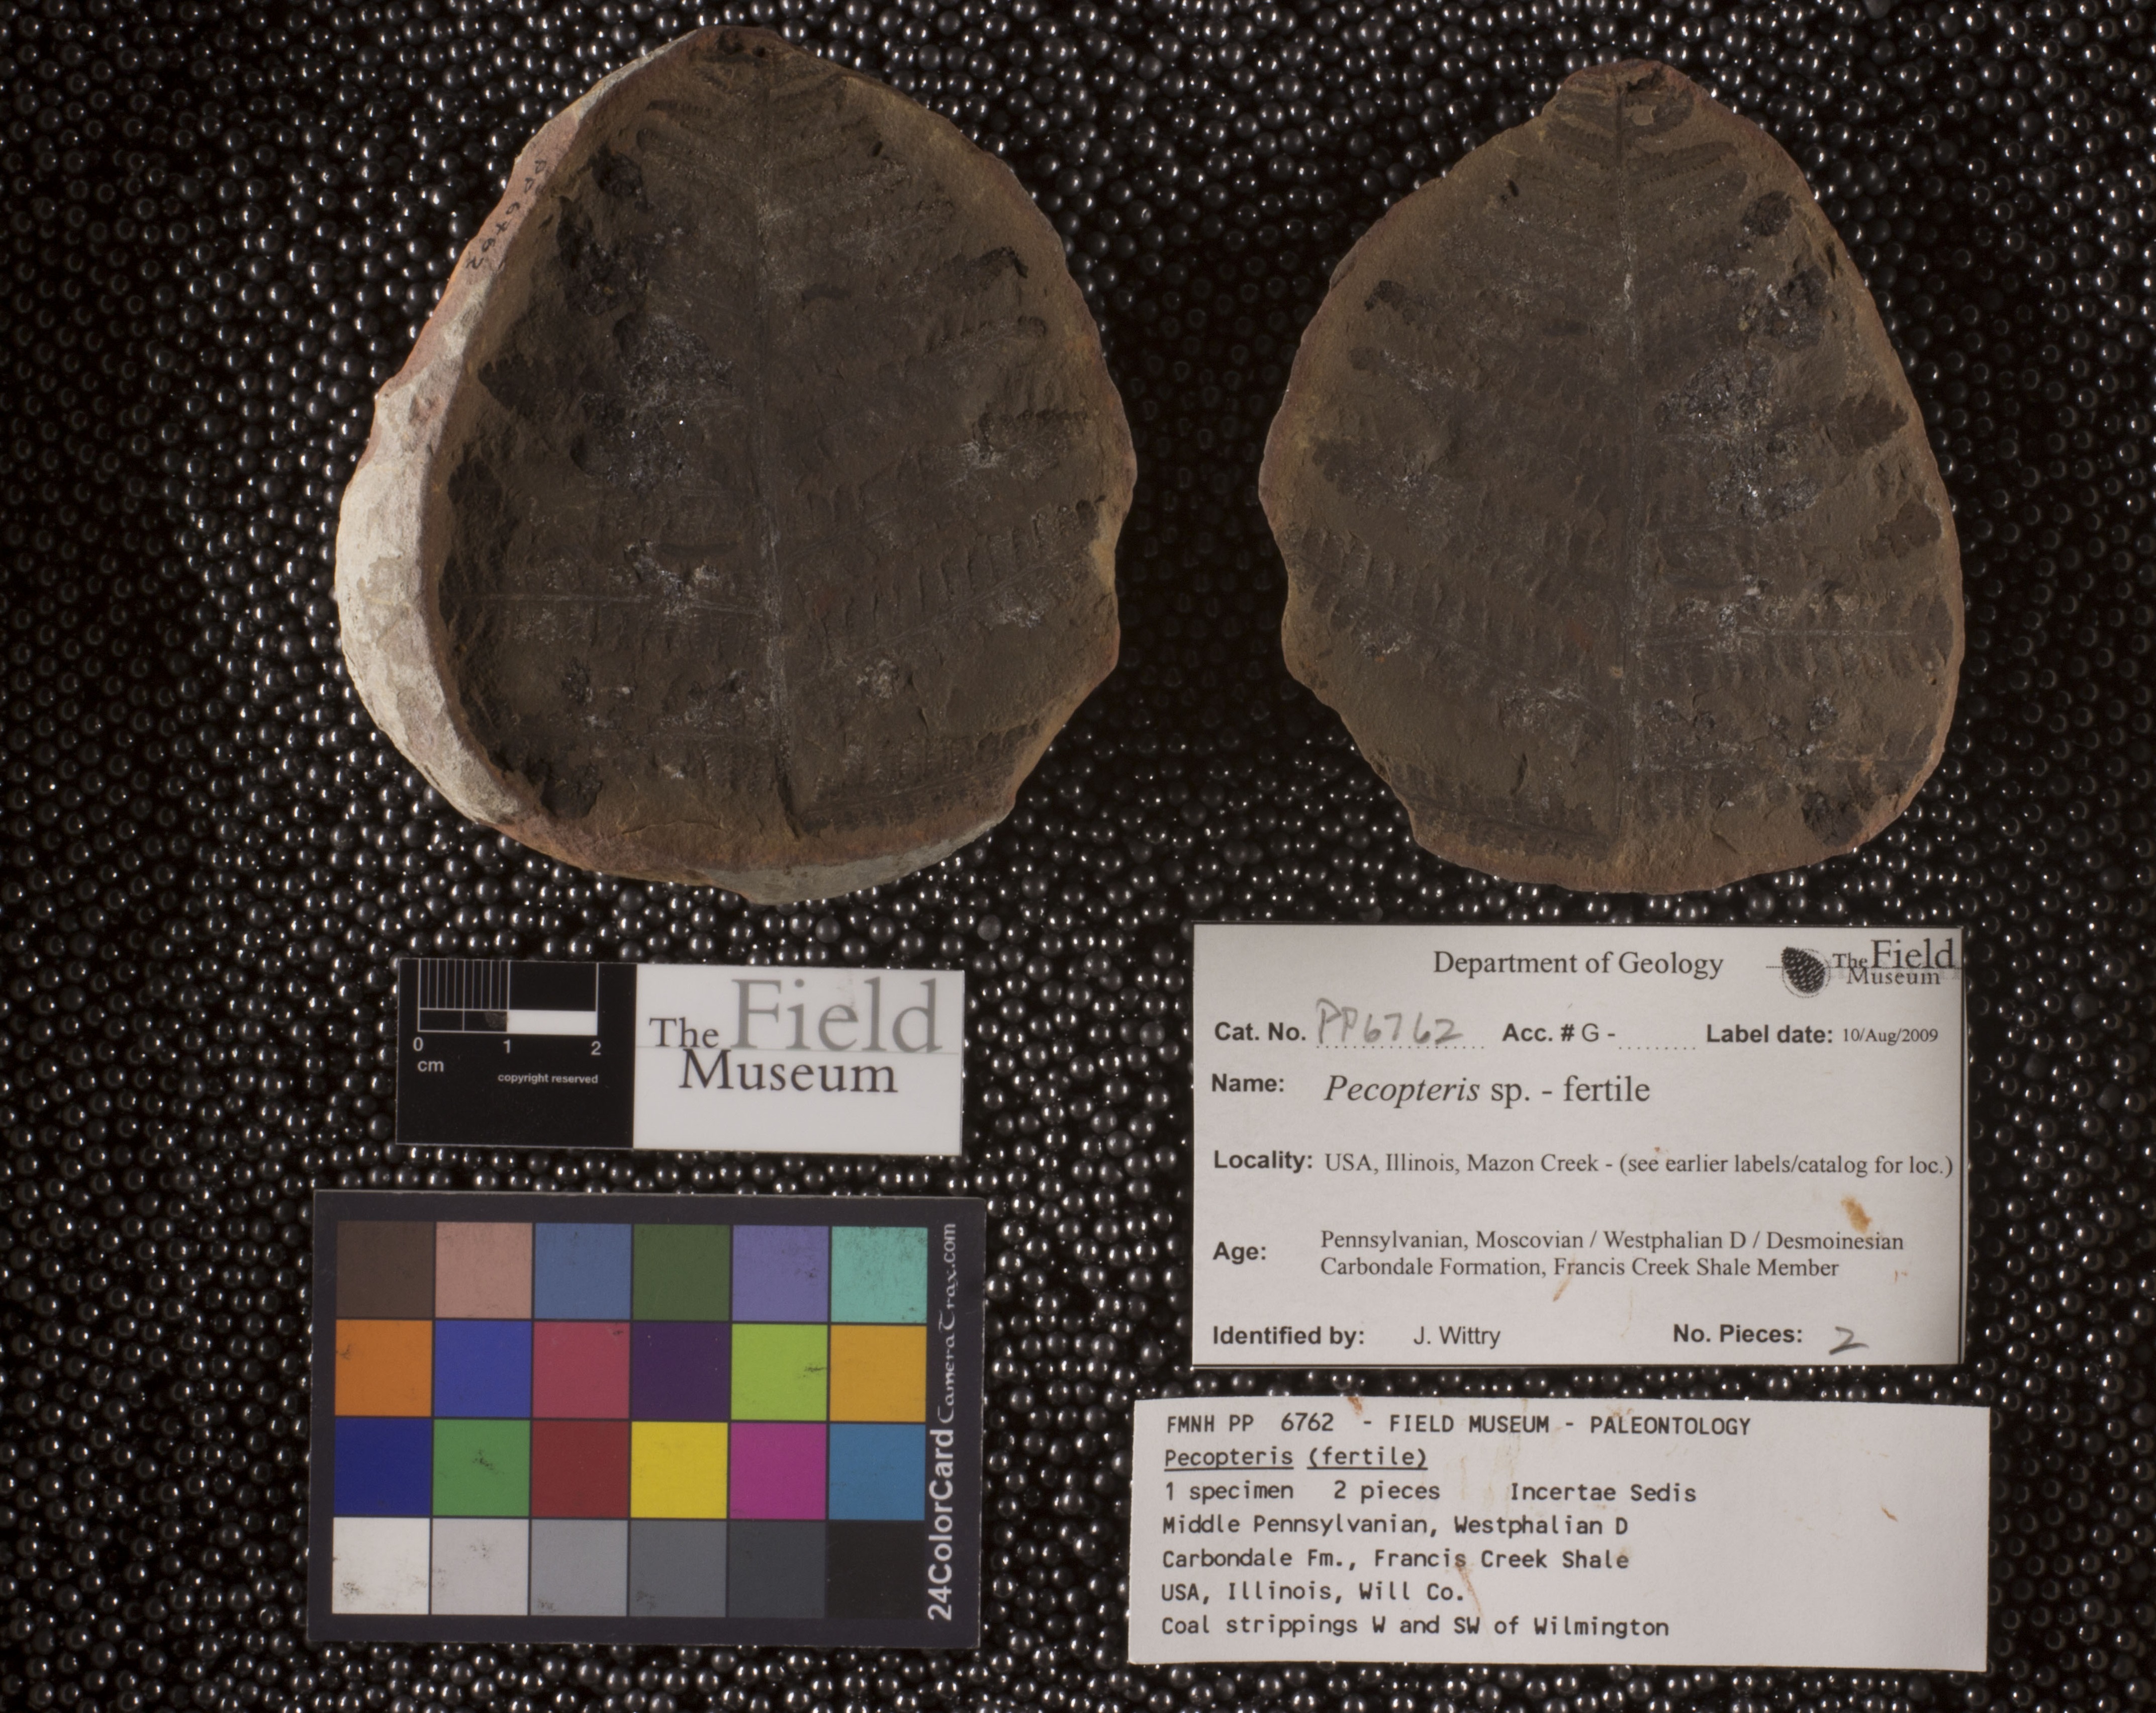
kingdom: Plantae
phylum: Tracheophyta
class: Polypodiopsida
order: Marattiales
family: Asterothecaceae
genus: Pecopteris
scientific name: Pecopteris
